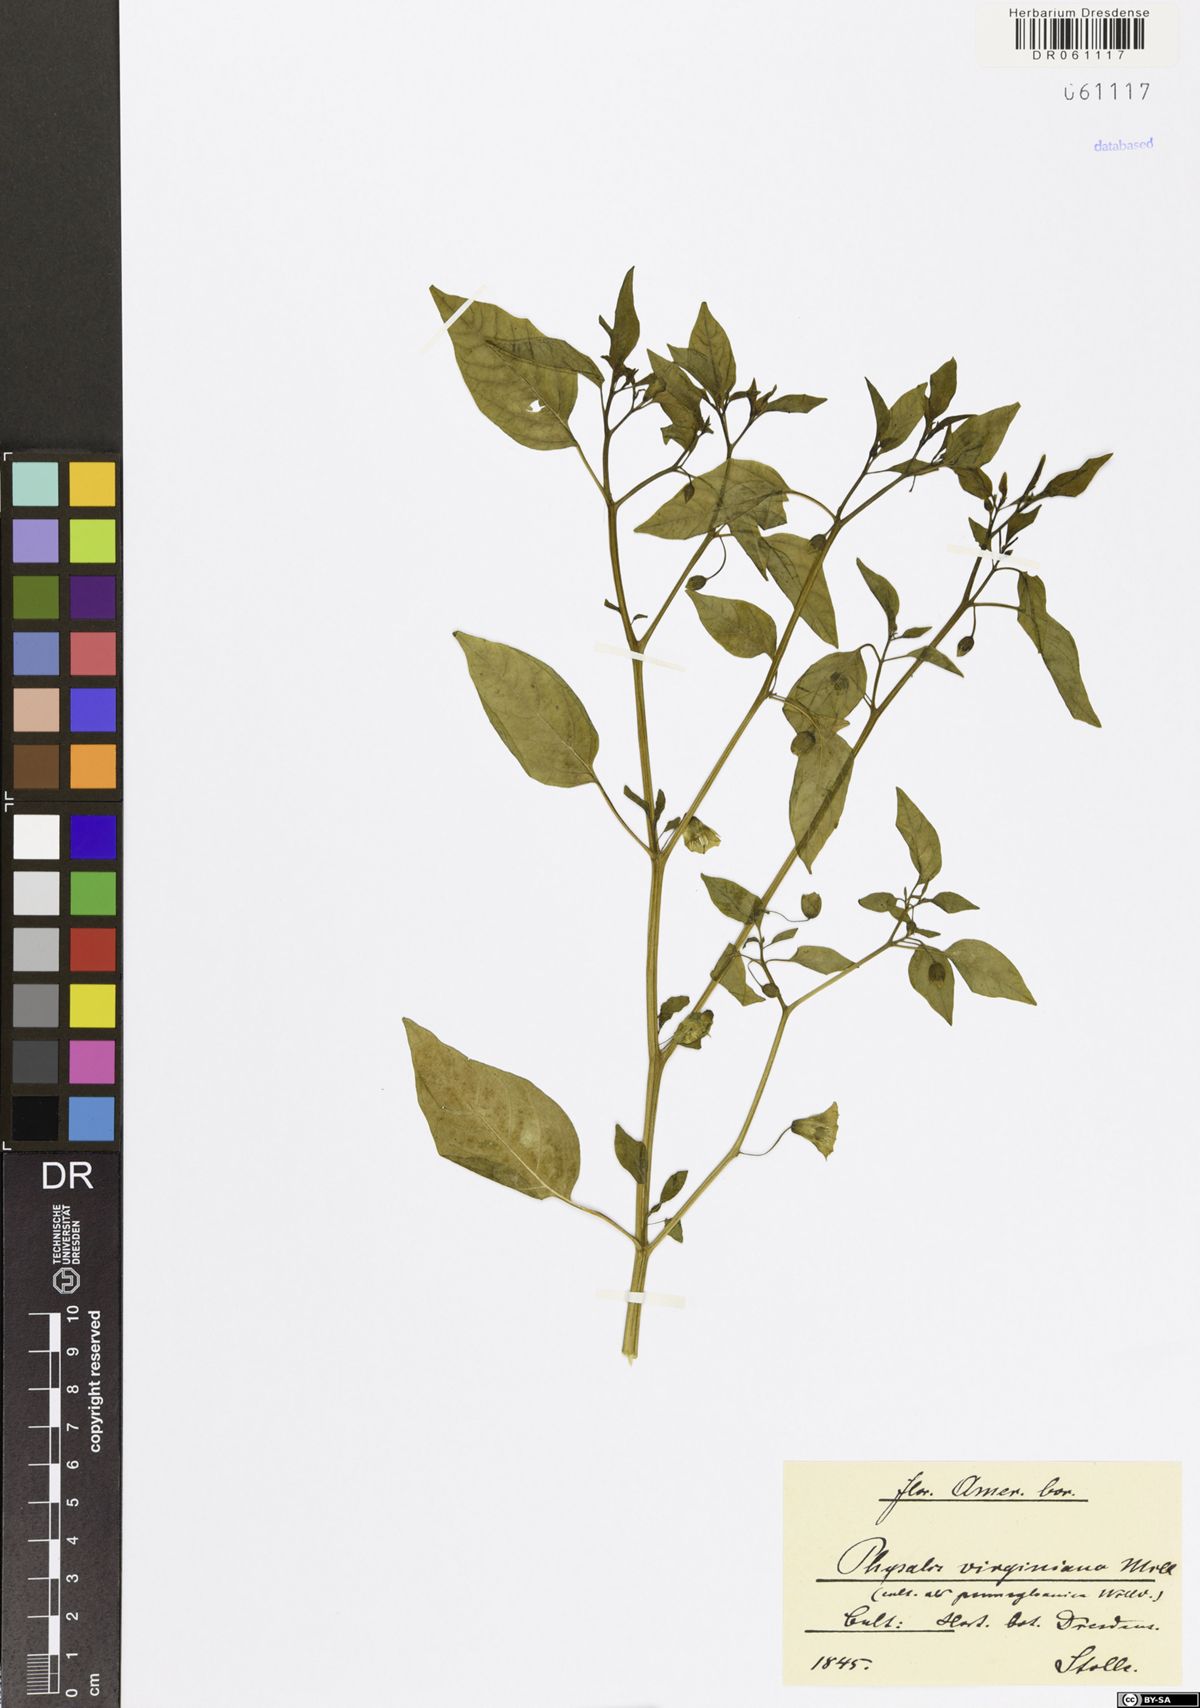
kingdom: Plantae
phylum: Tracheophyta
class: Magnoliopsida
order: Solanales
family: Solanaceae
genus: Physalis
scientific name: Physalis virginiana
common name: Virginia ground-cherry
